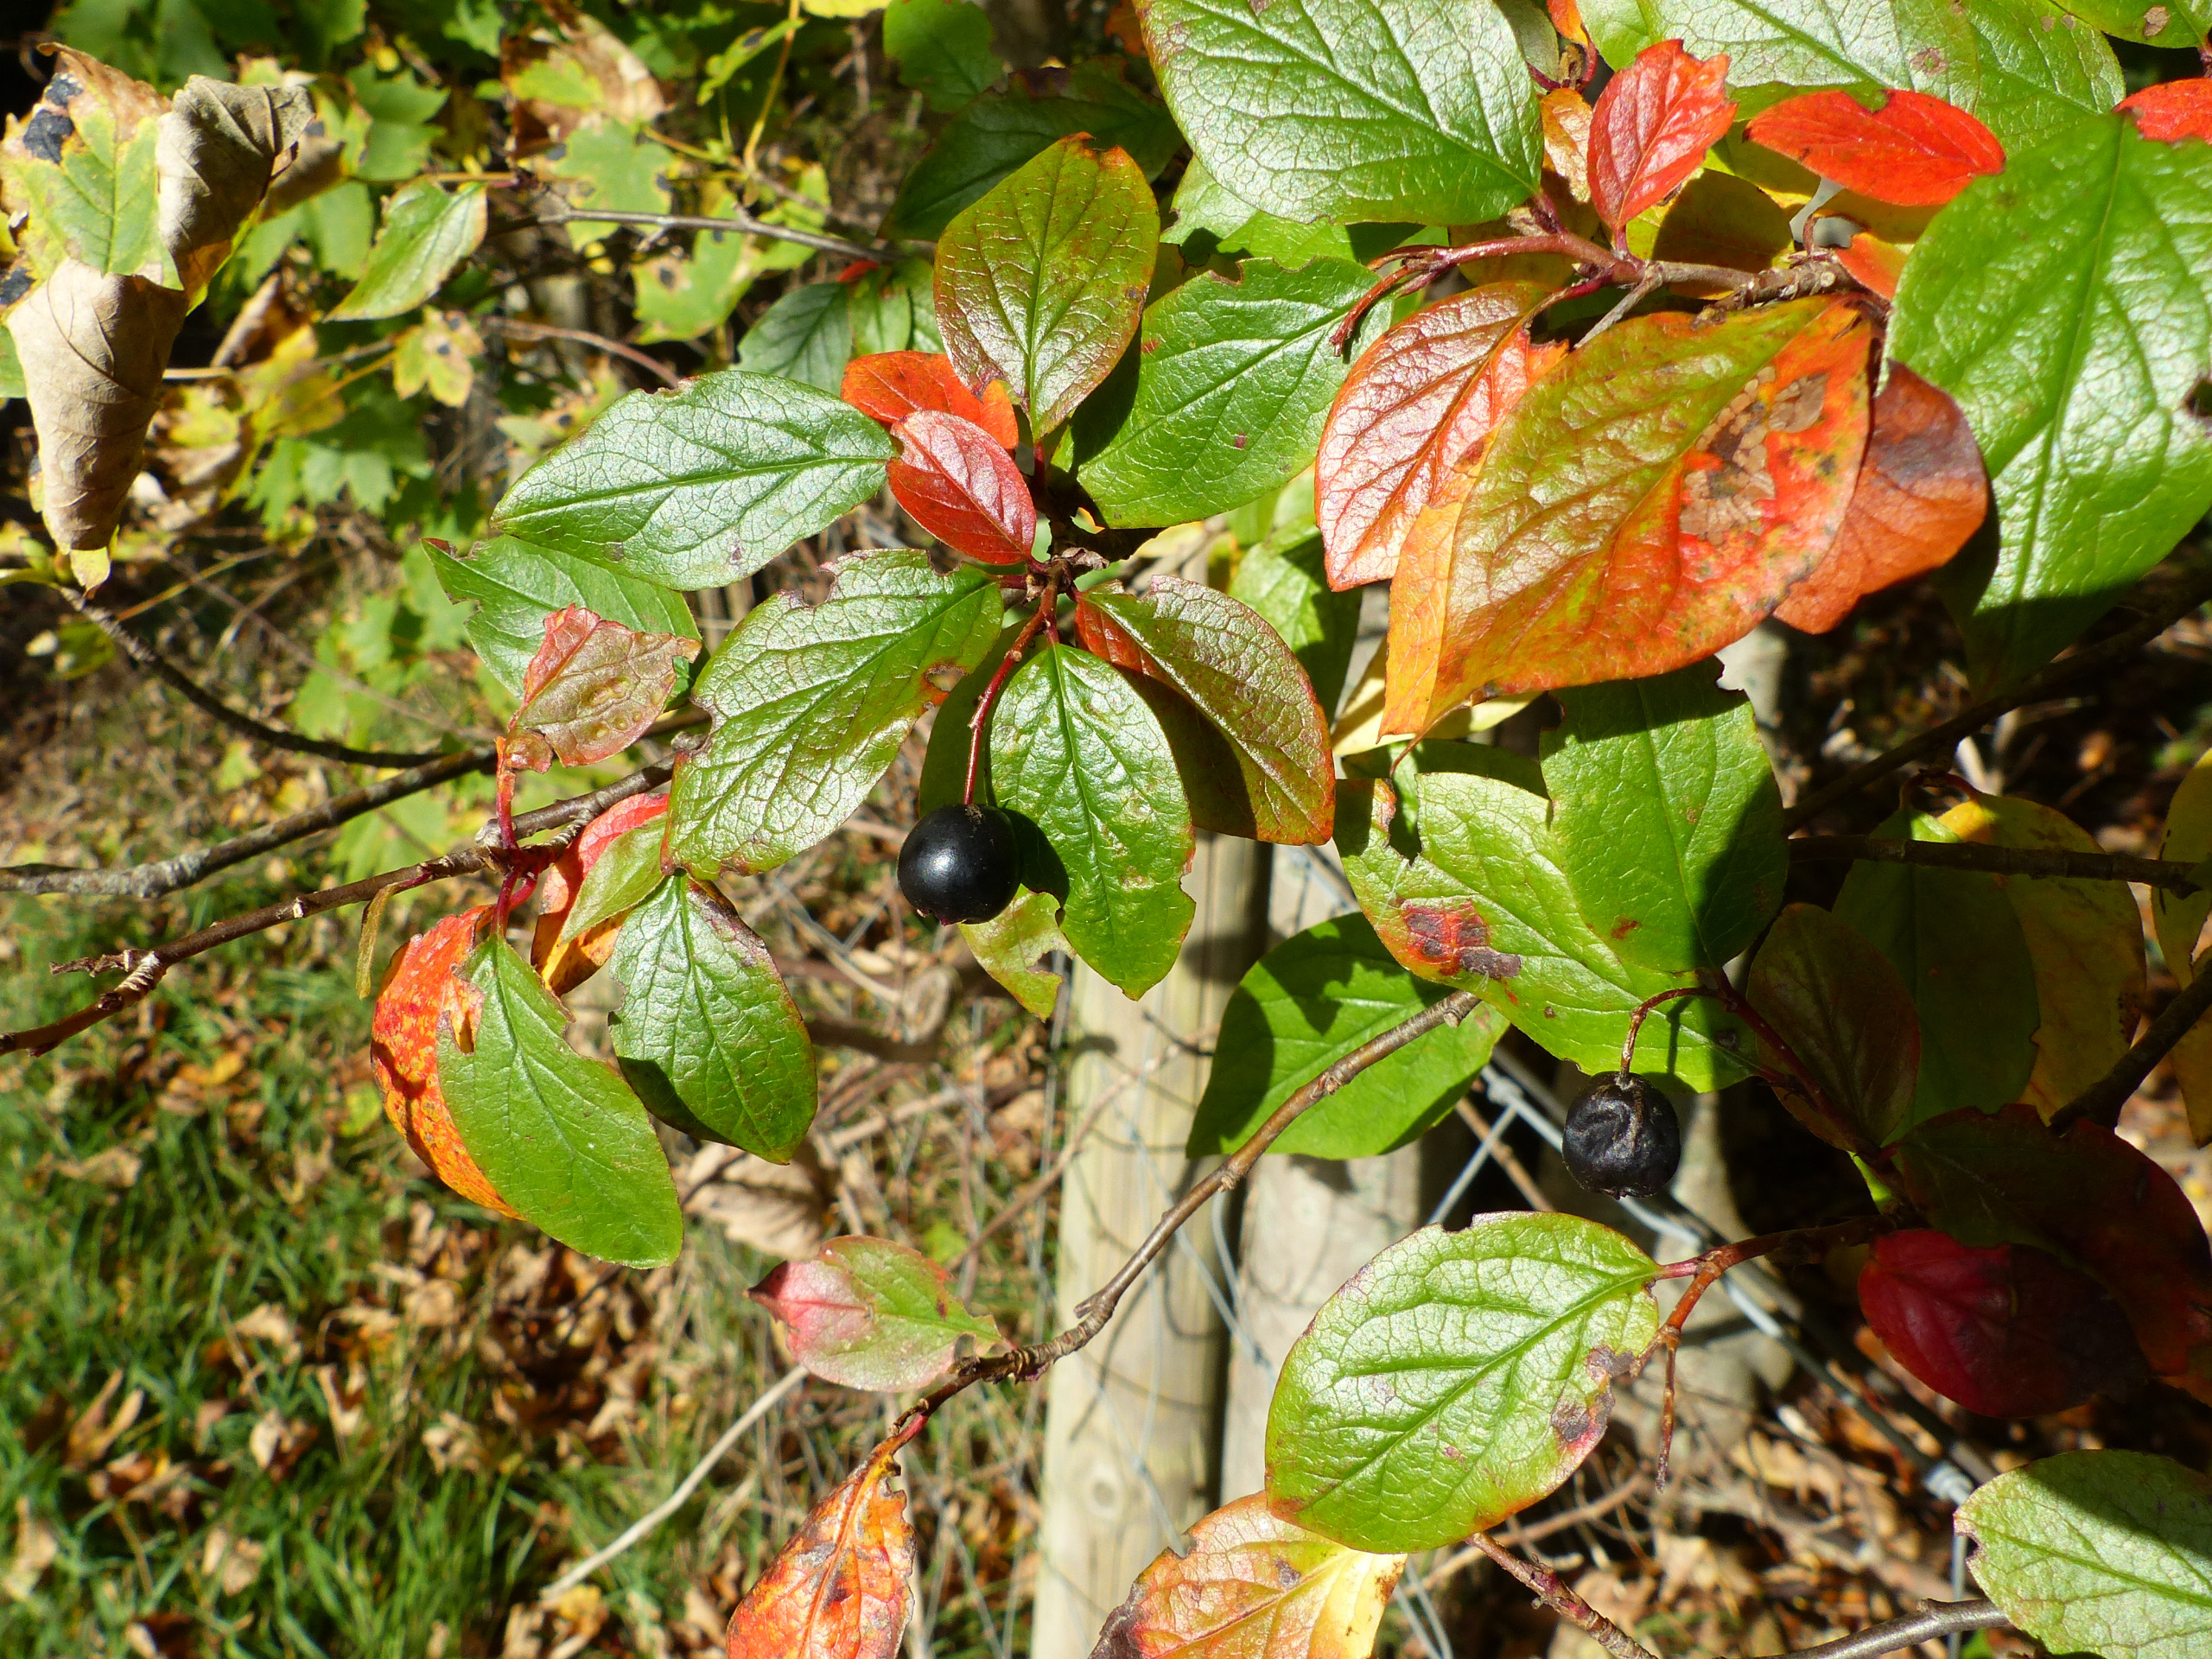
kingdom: Plantae
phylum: Tracheophyta
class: Magnoliopsida
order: Rosales
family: Rosaceae
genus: Cotoneaster
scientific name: Cotoneaster acutifolius
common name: Glans-dværgmispel
